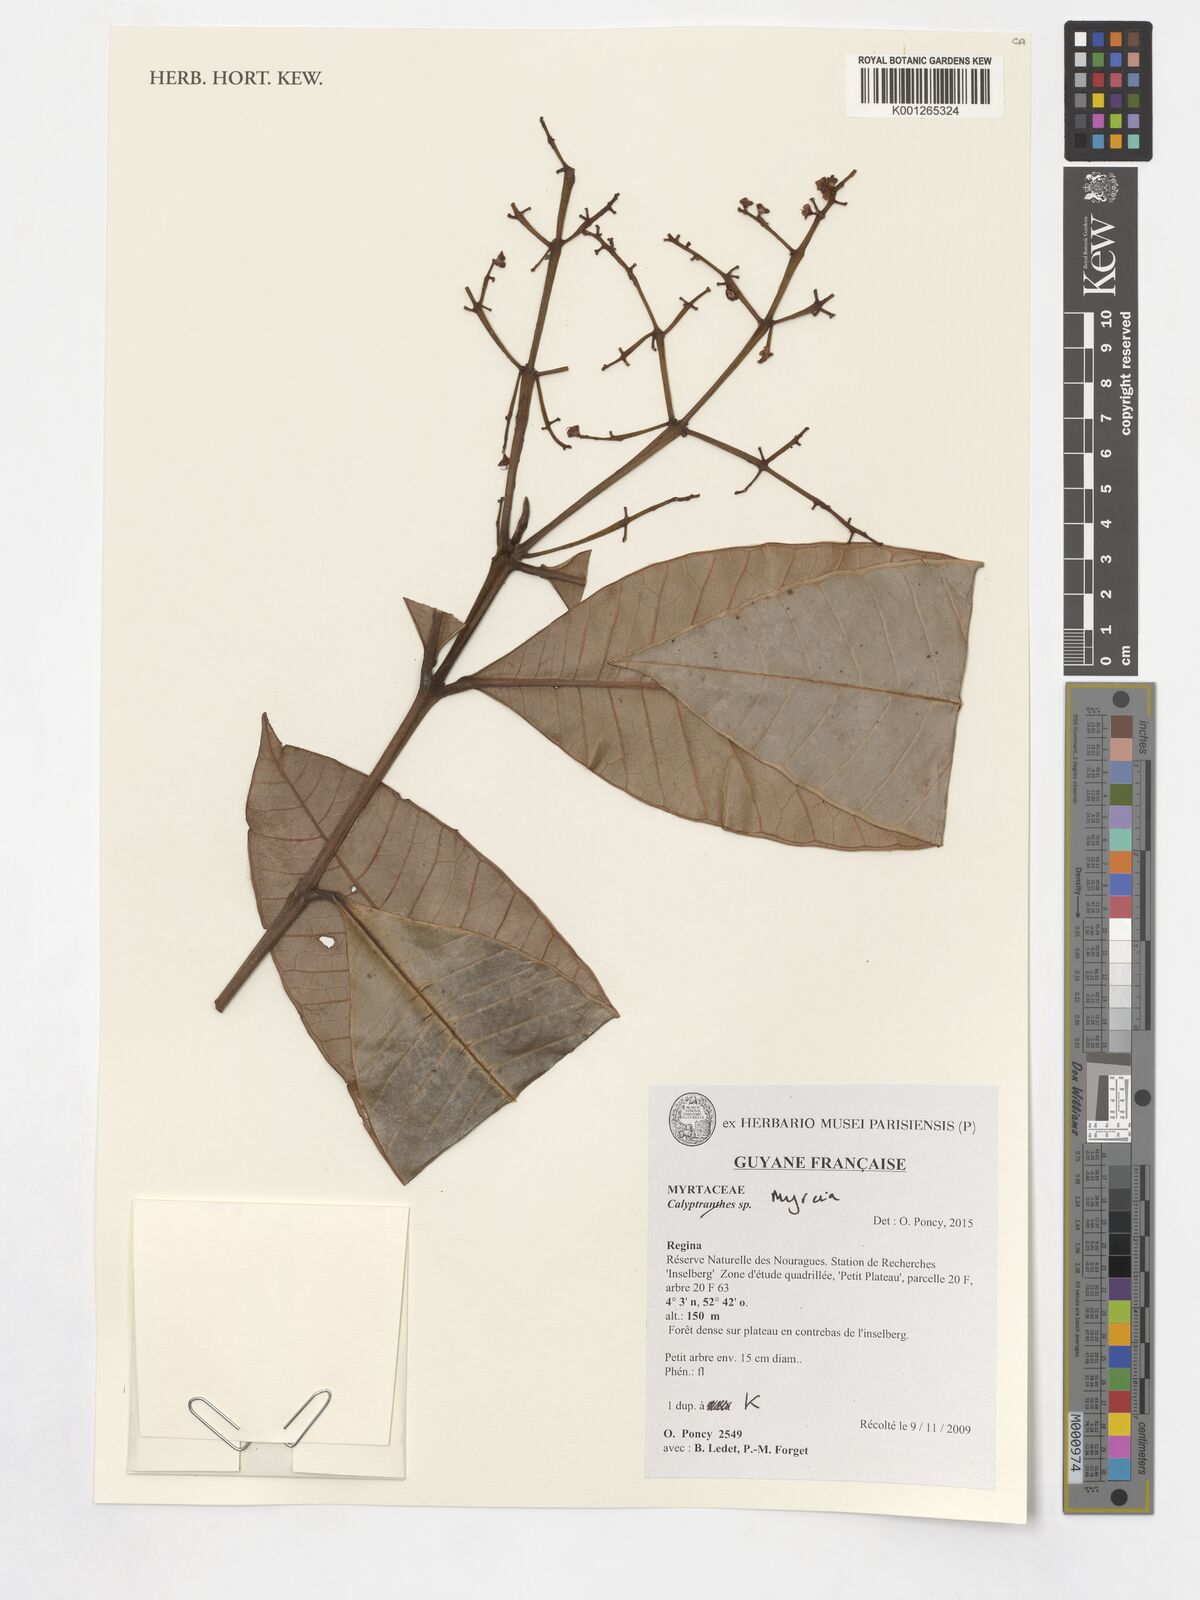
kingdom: Plantae
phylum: Tracheophyta
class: Magnoliopsida
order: Myrtales
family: Myrtaceae
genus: Myrcia
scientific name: Myrcia
